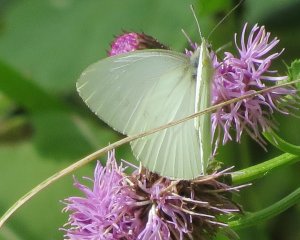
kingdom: Animalia
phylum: Arthropoda
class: Insecta
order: Lepidoptera
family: Pieridae
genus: Pieris
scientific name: Pieris oleracea
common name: Mustard White
